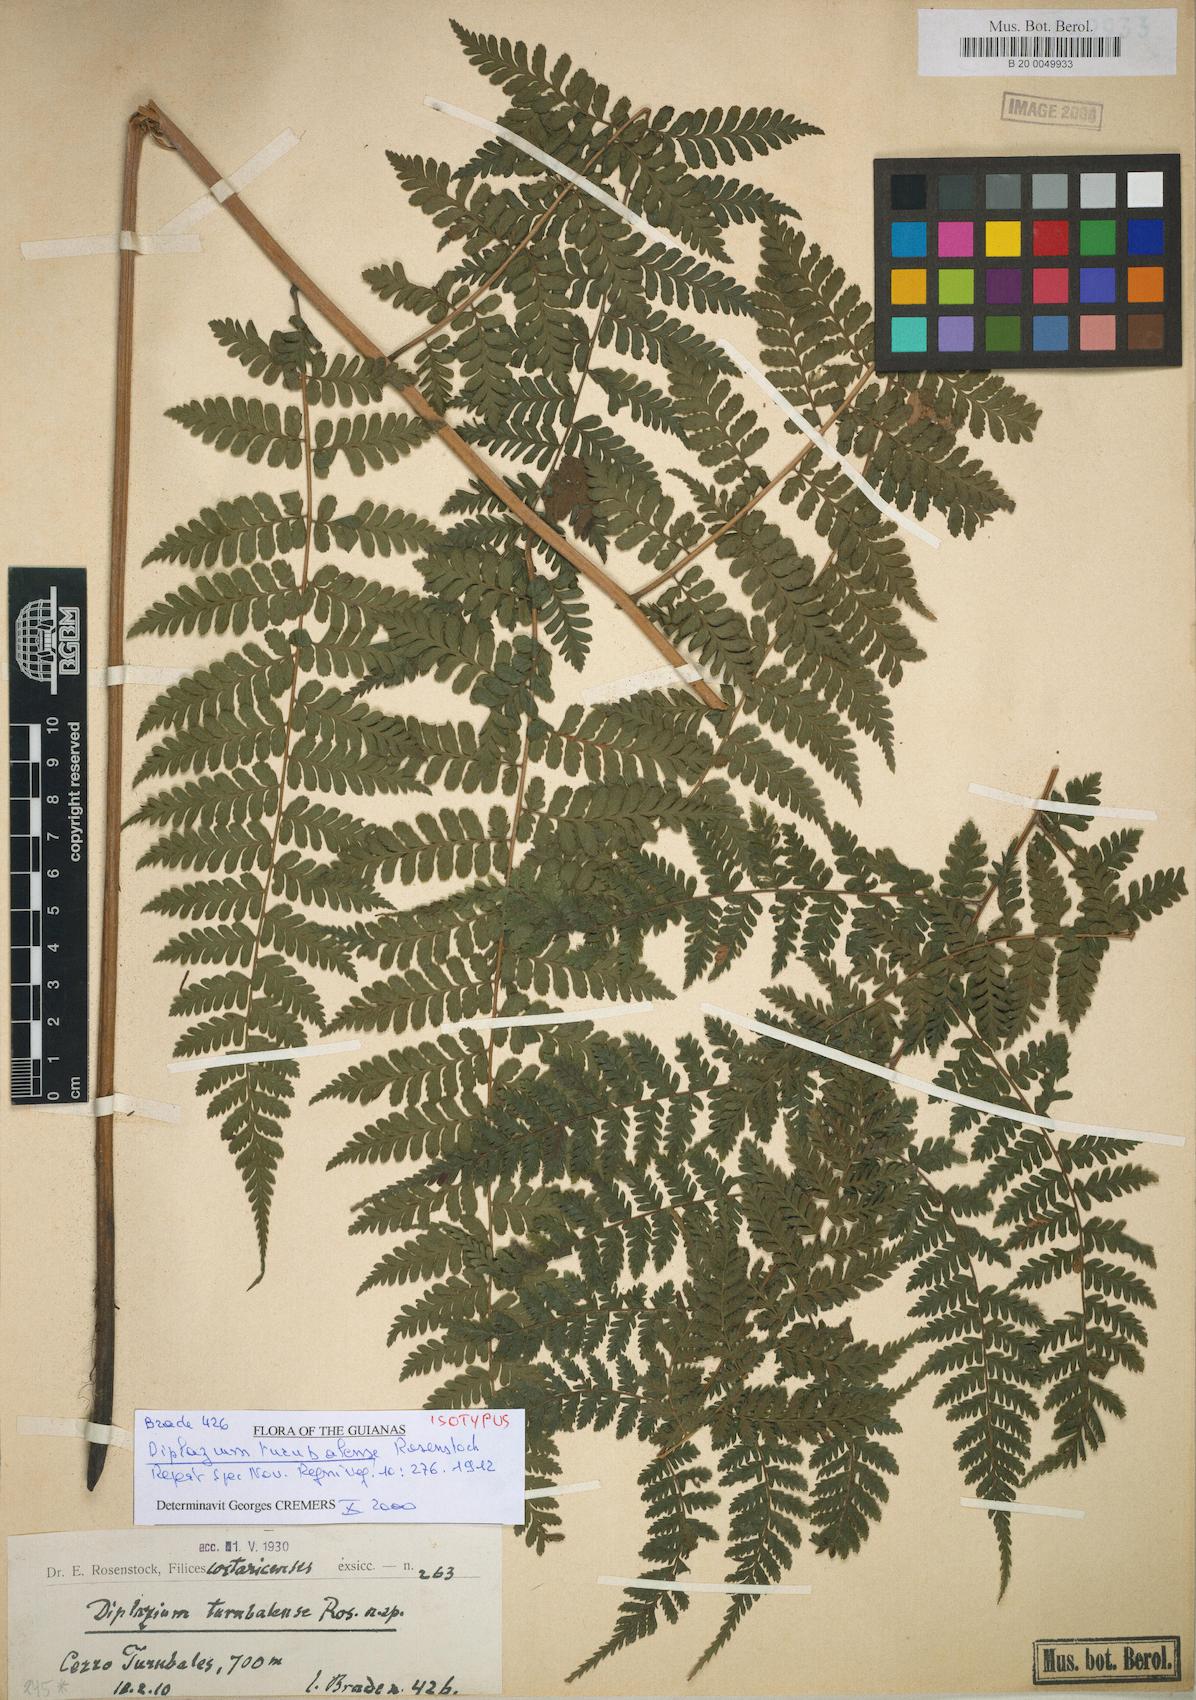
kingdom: Plantae
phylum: Tracheophyta
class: Polypodiopsida
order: Polypodiales
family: Athyriaceae
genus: Diplazium
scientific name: Diplazium turubalense
